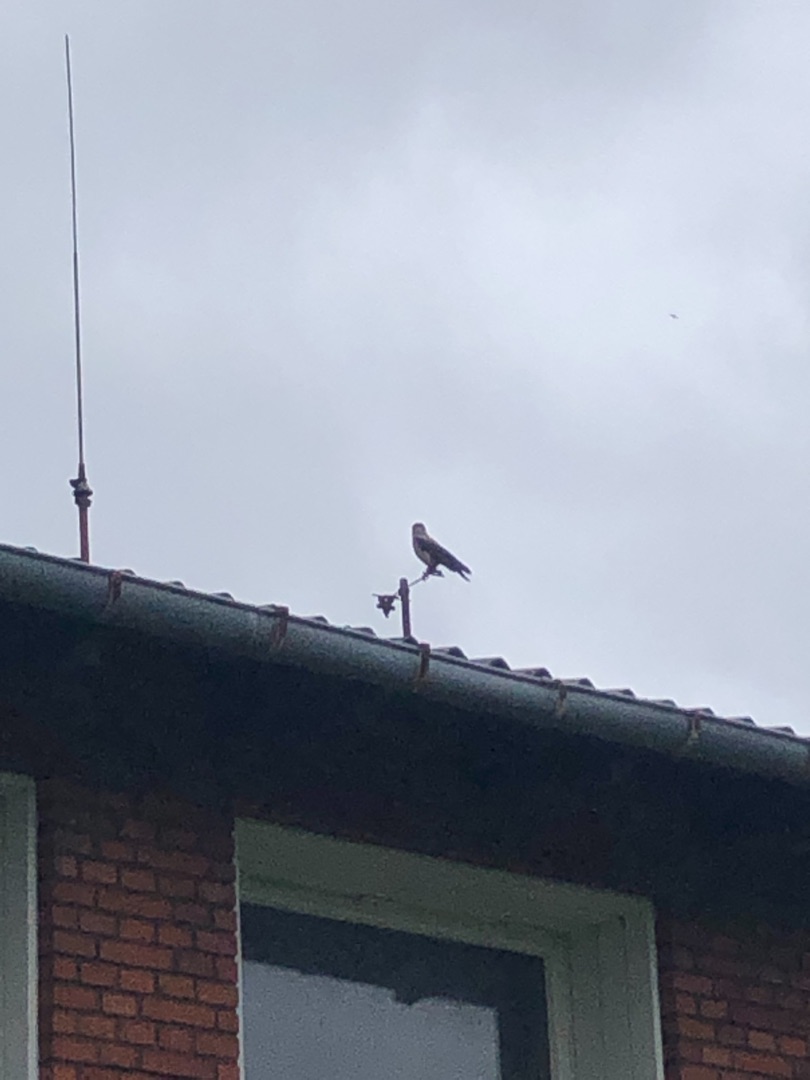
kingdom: Animalia
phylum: Chordata
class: Aves
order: Passeriformes
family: Corvidae
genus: Corvus
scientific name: Corvus cornix
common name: Gråkrage
